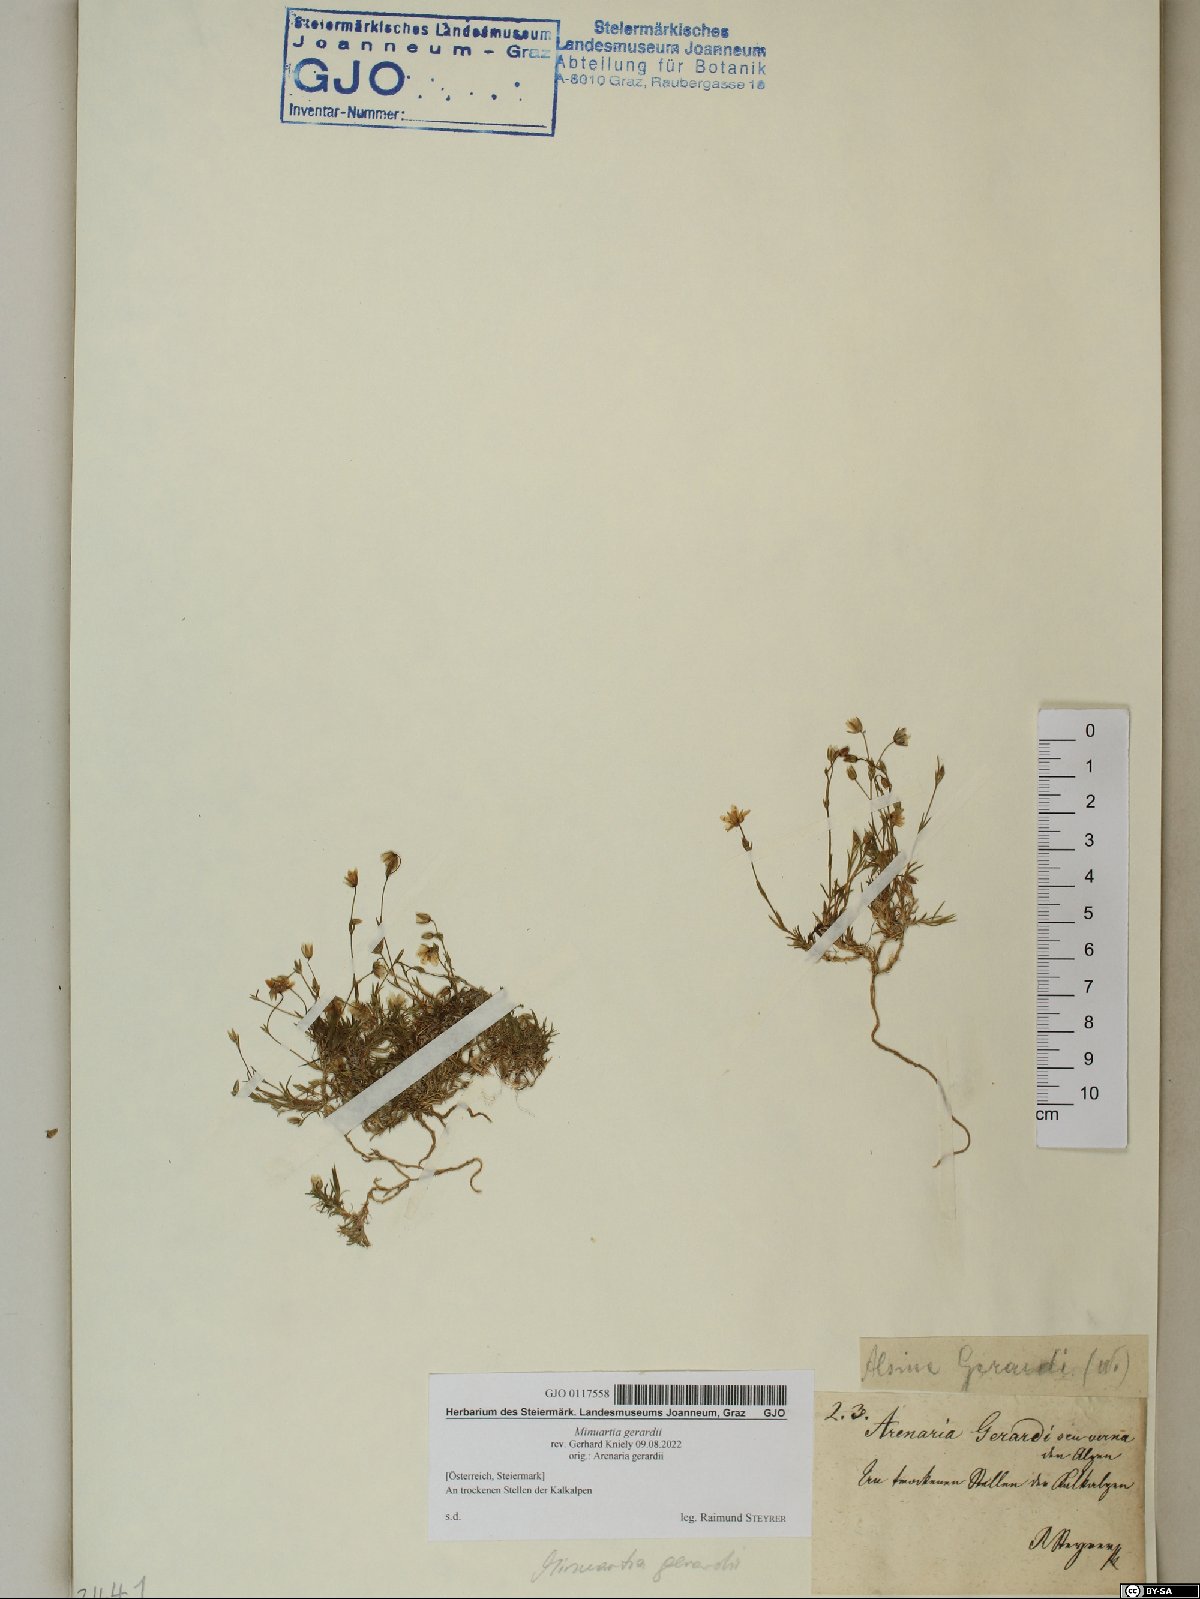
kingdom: Plantae
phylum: Tracheophyta
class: Magnoliopsida
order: Caryophyllales
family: Caryophyllaceae
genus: Sabulina
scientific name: Sabulina verna
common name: Spring sandwort
